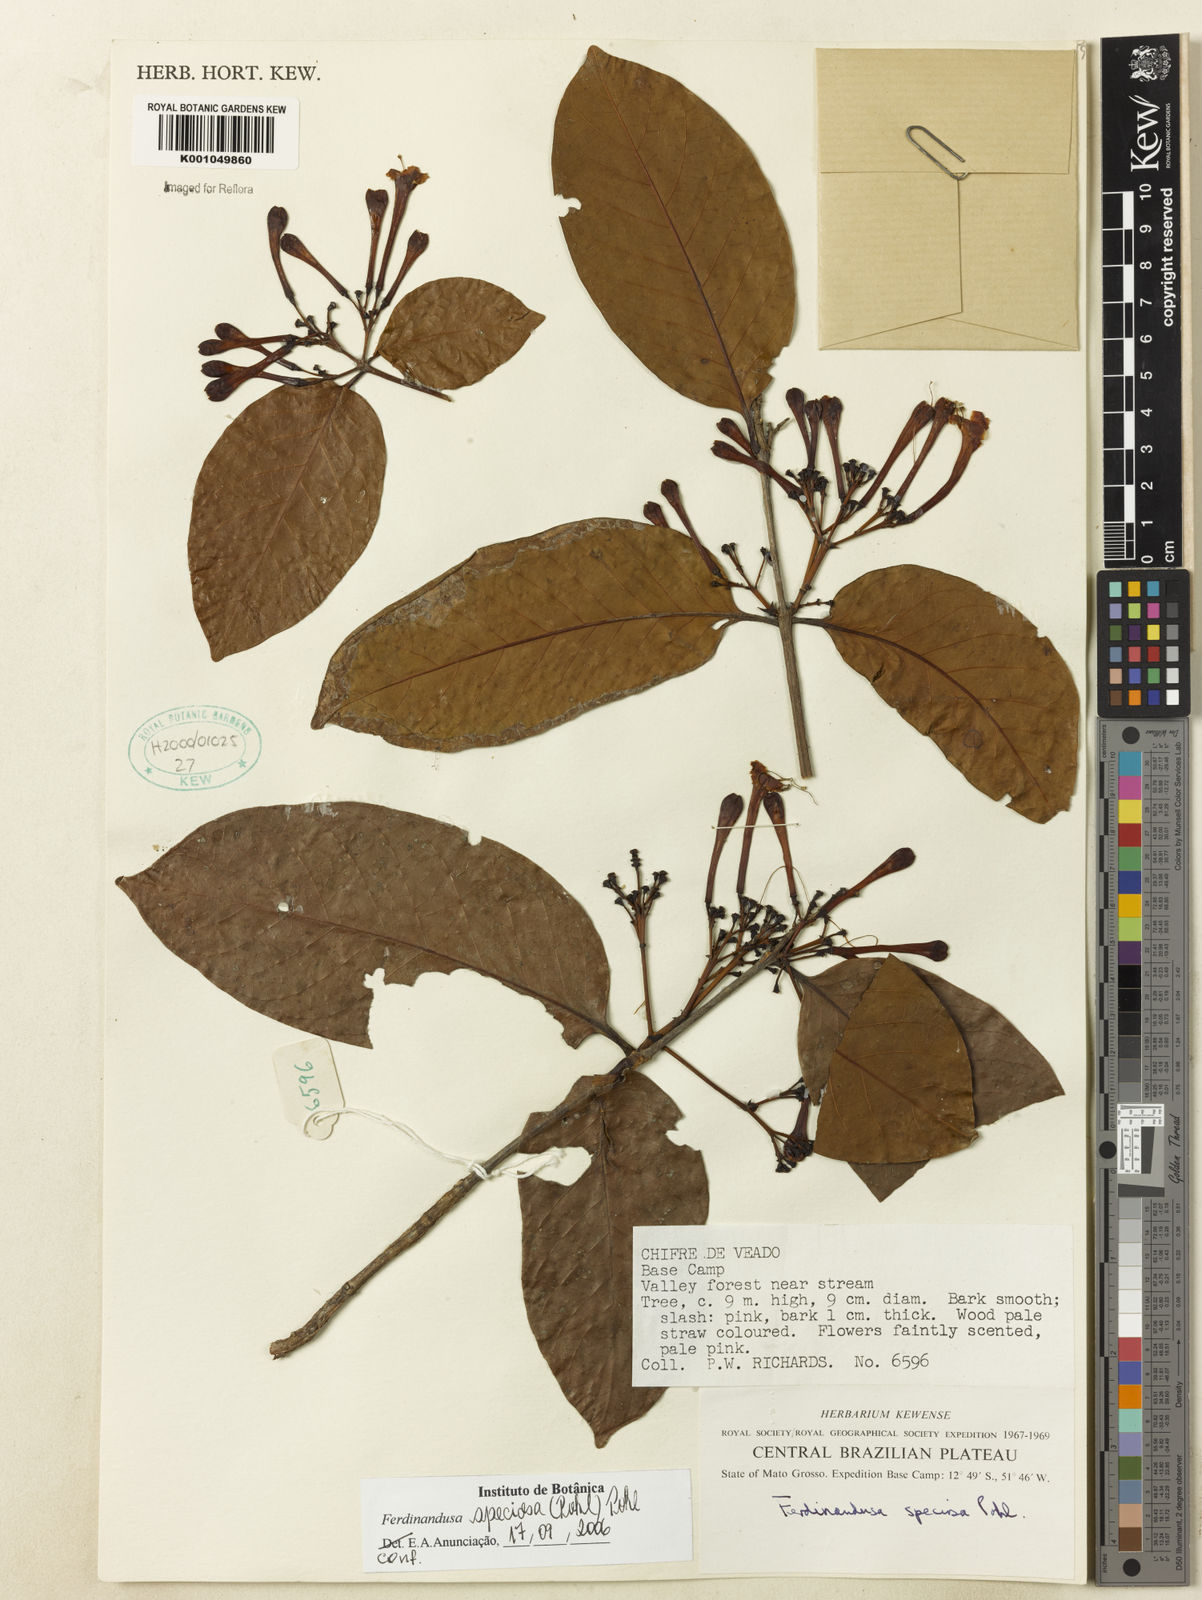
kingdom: Plantae
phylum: Tracheophyta
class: Magnoliopsida
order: Gentianales
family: Rubiaceae
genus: Ferdinandusa
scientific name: Ferdinandusa speciosa
